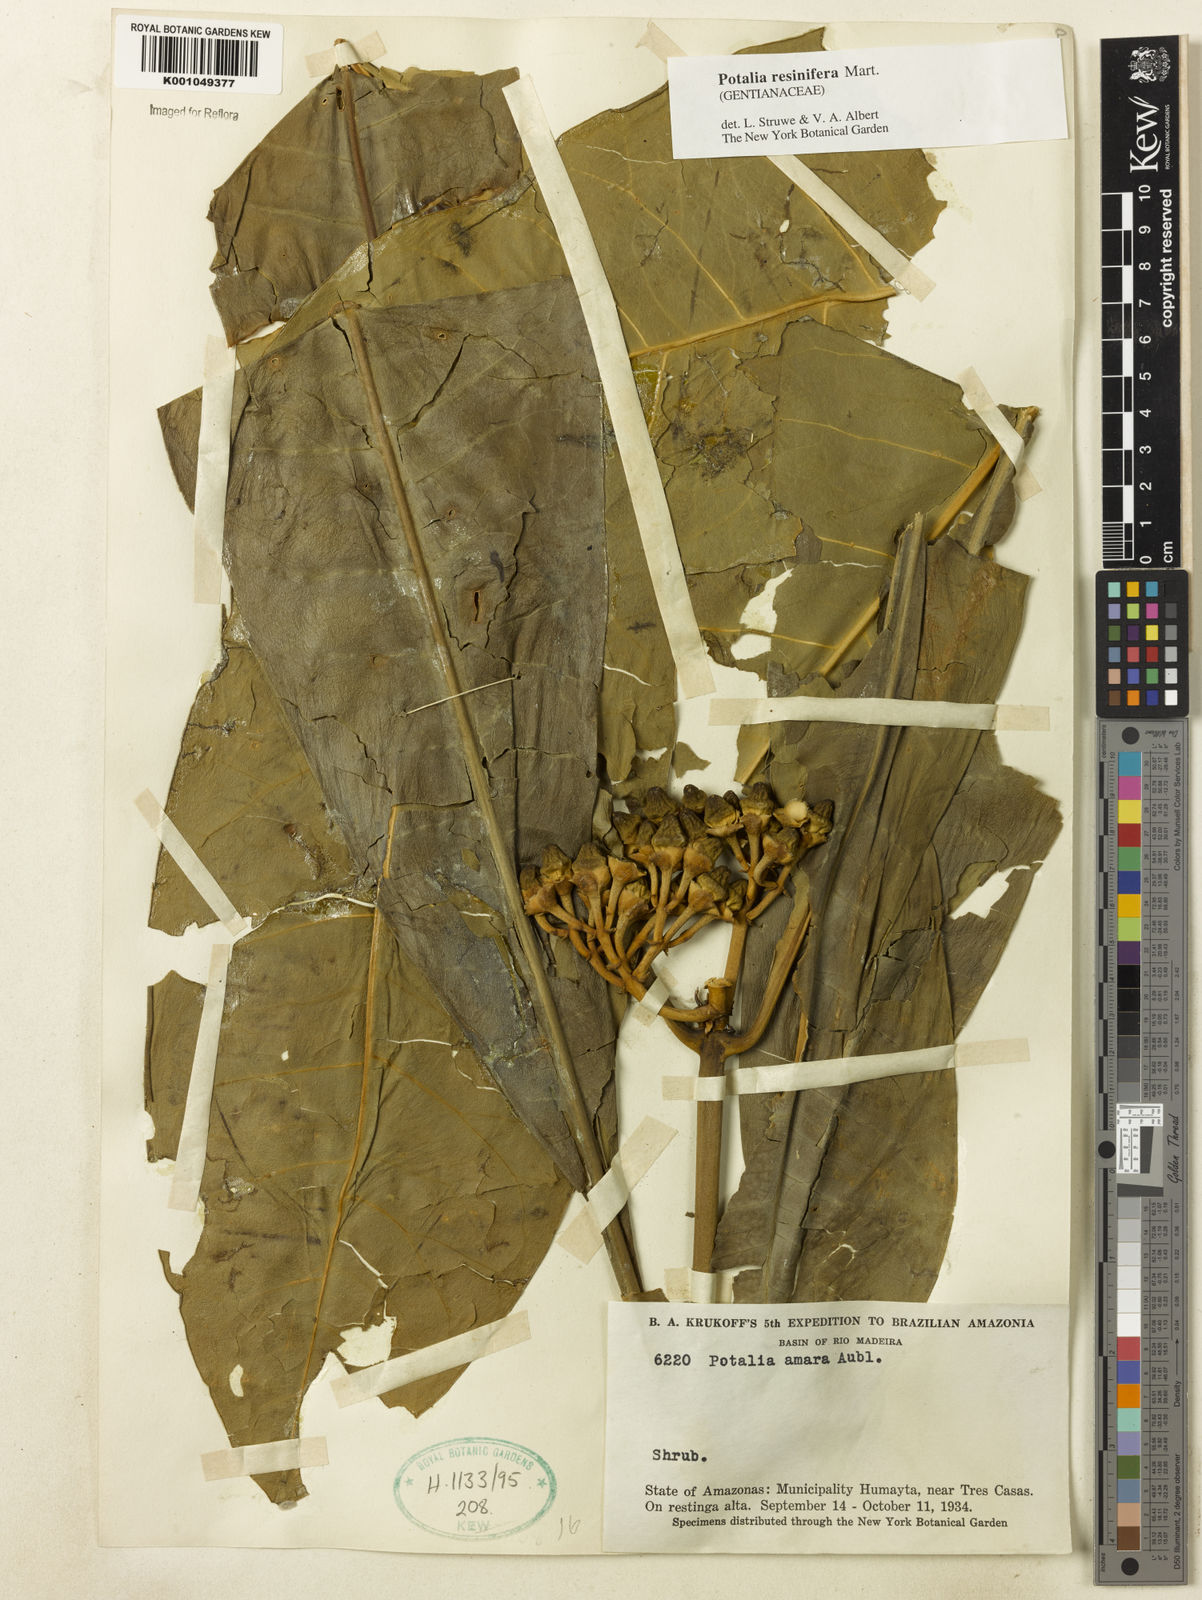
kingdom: Plantae
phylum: Tracheophyta
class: Magnoliopsida
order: Gentianales
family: Gentianaceae
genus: Potalia
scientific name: Potalia resinifera
